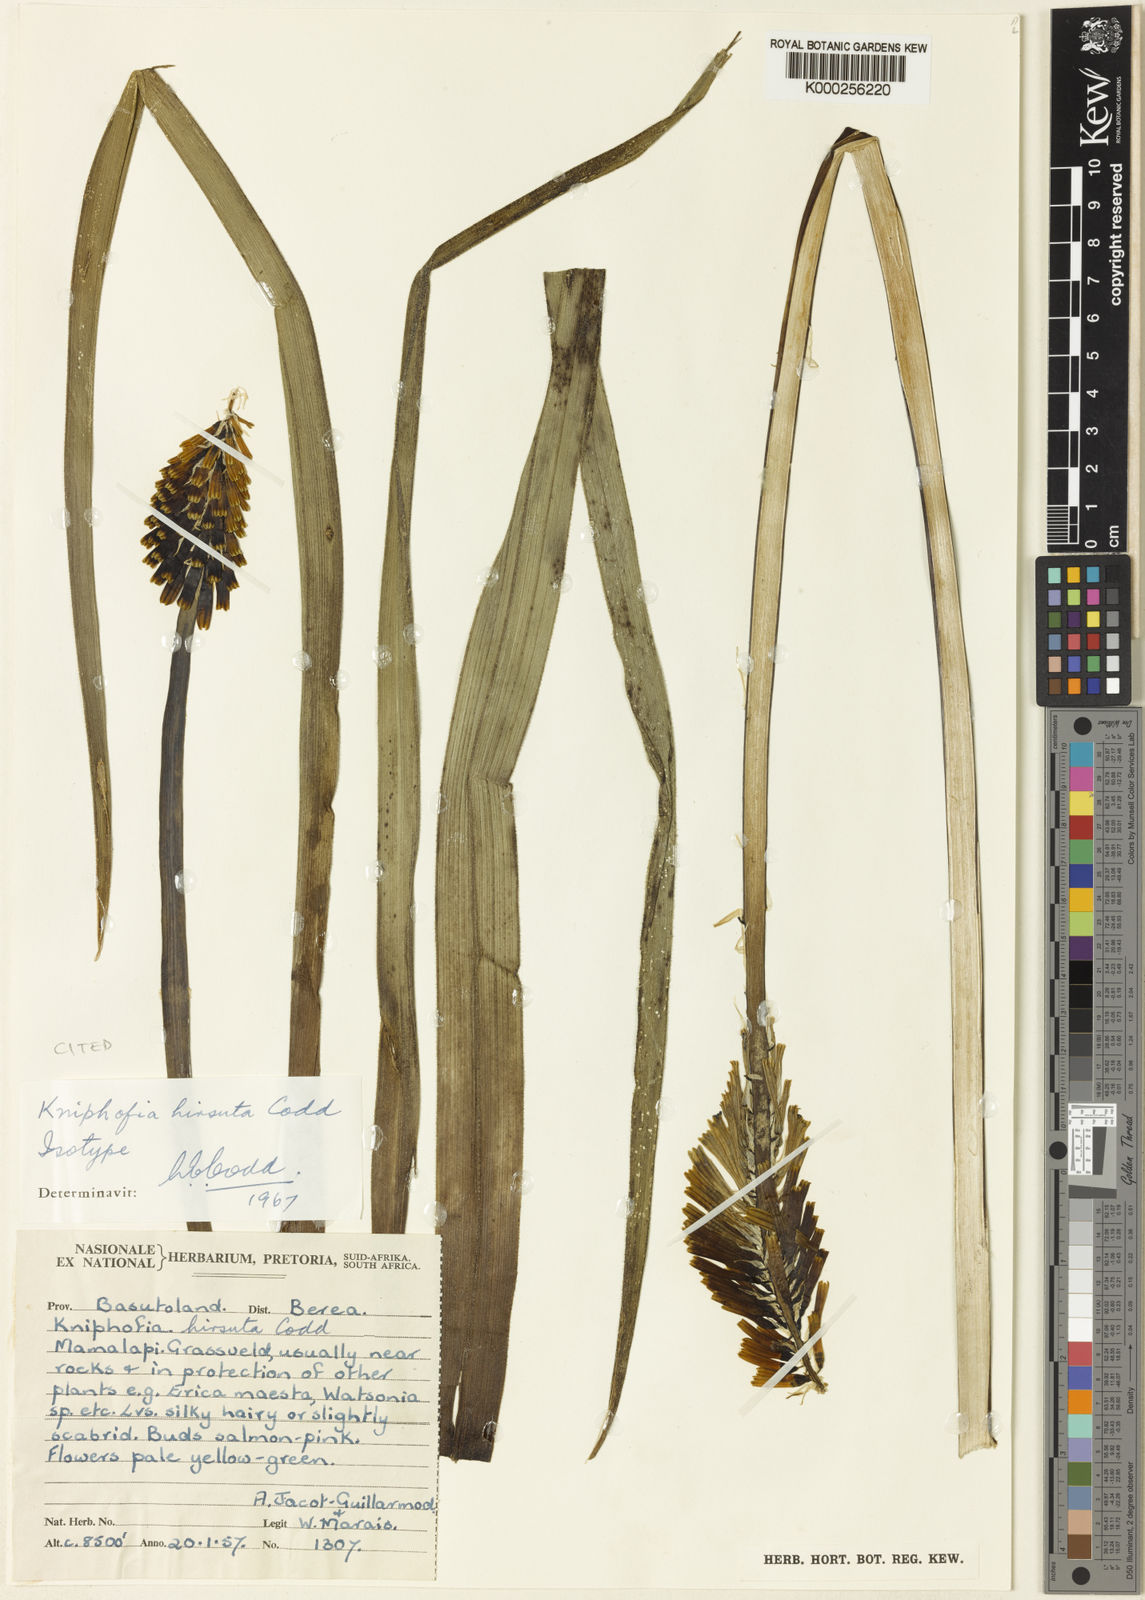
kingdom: Plantae
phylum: Tracheophyta
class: Liliopsida
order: Asparagales
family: Asphodelaceae
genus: Kniphofia
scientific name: Kniphofia hirsuta
